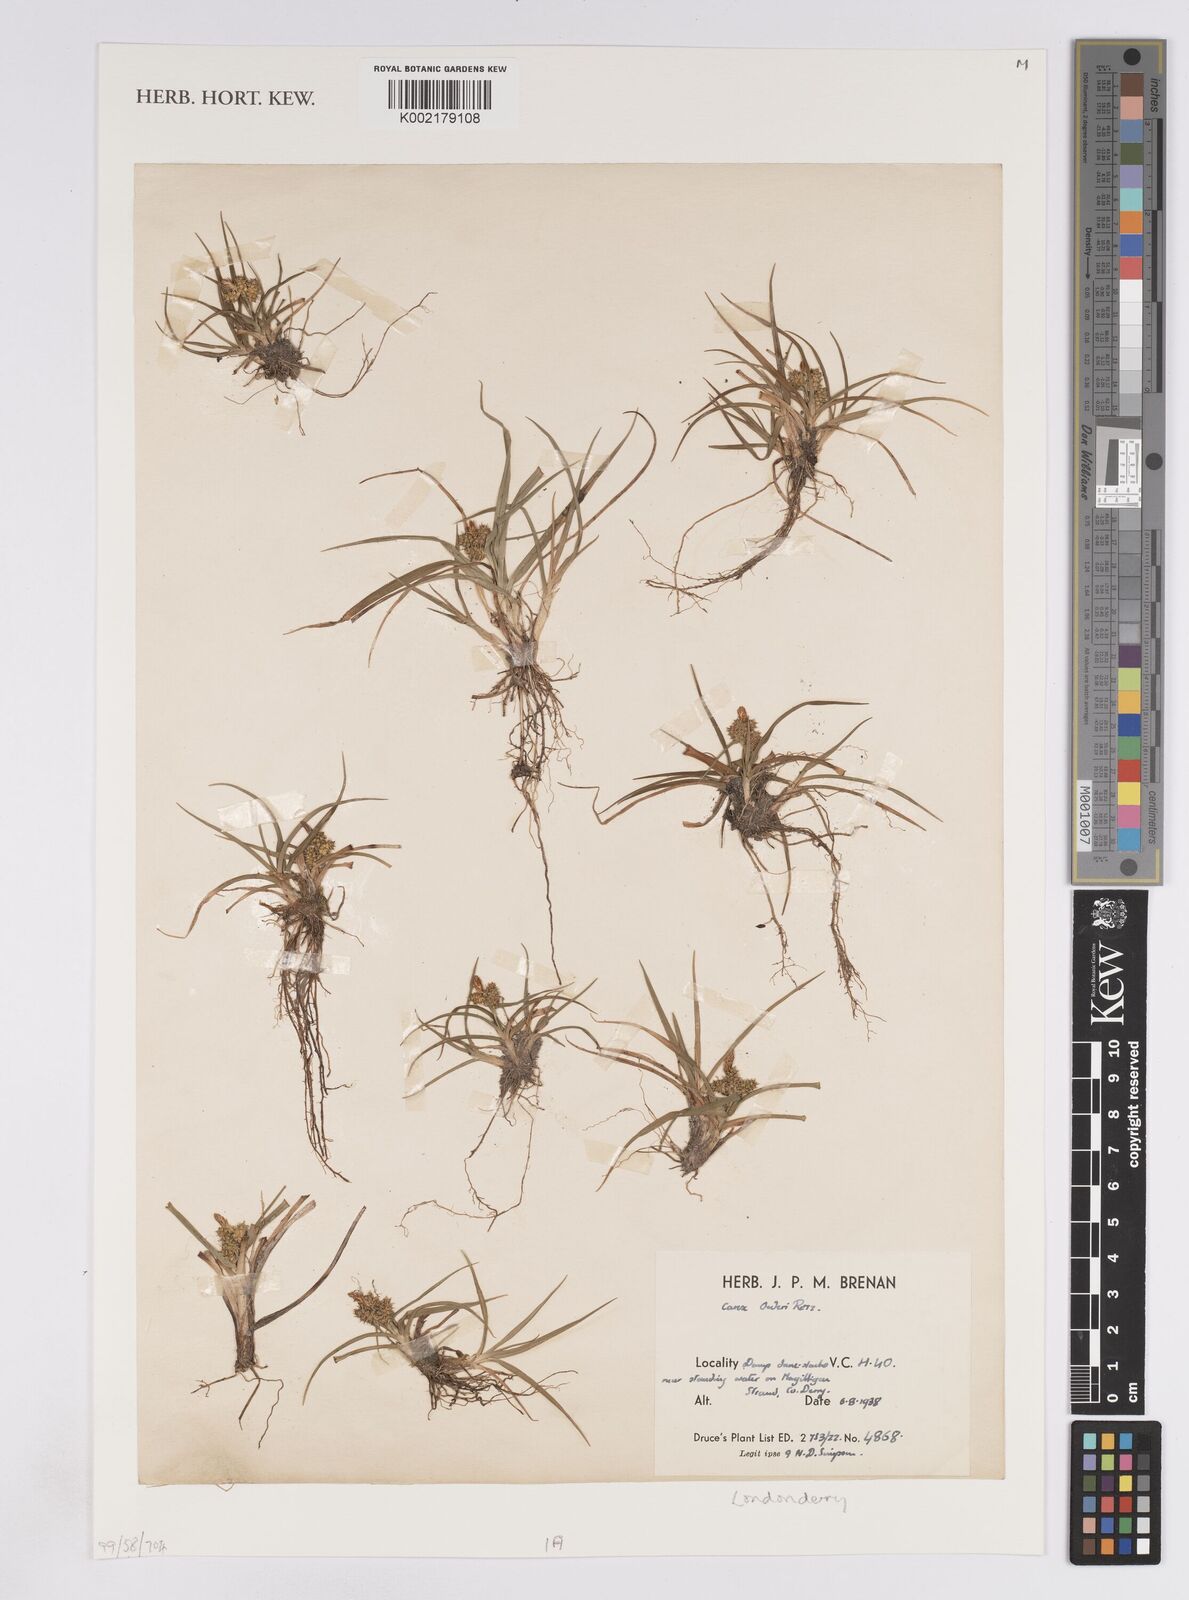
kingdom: Plantae
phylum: Tracheophyta
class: Liliopsida
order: Poales
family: Cyperaceae
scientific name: Cyperaceae
